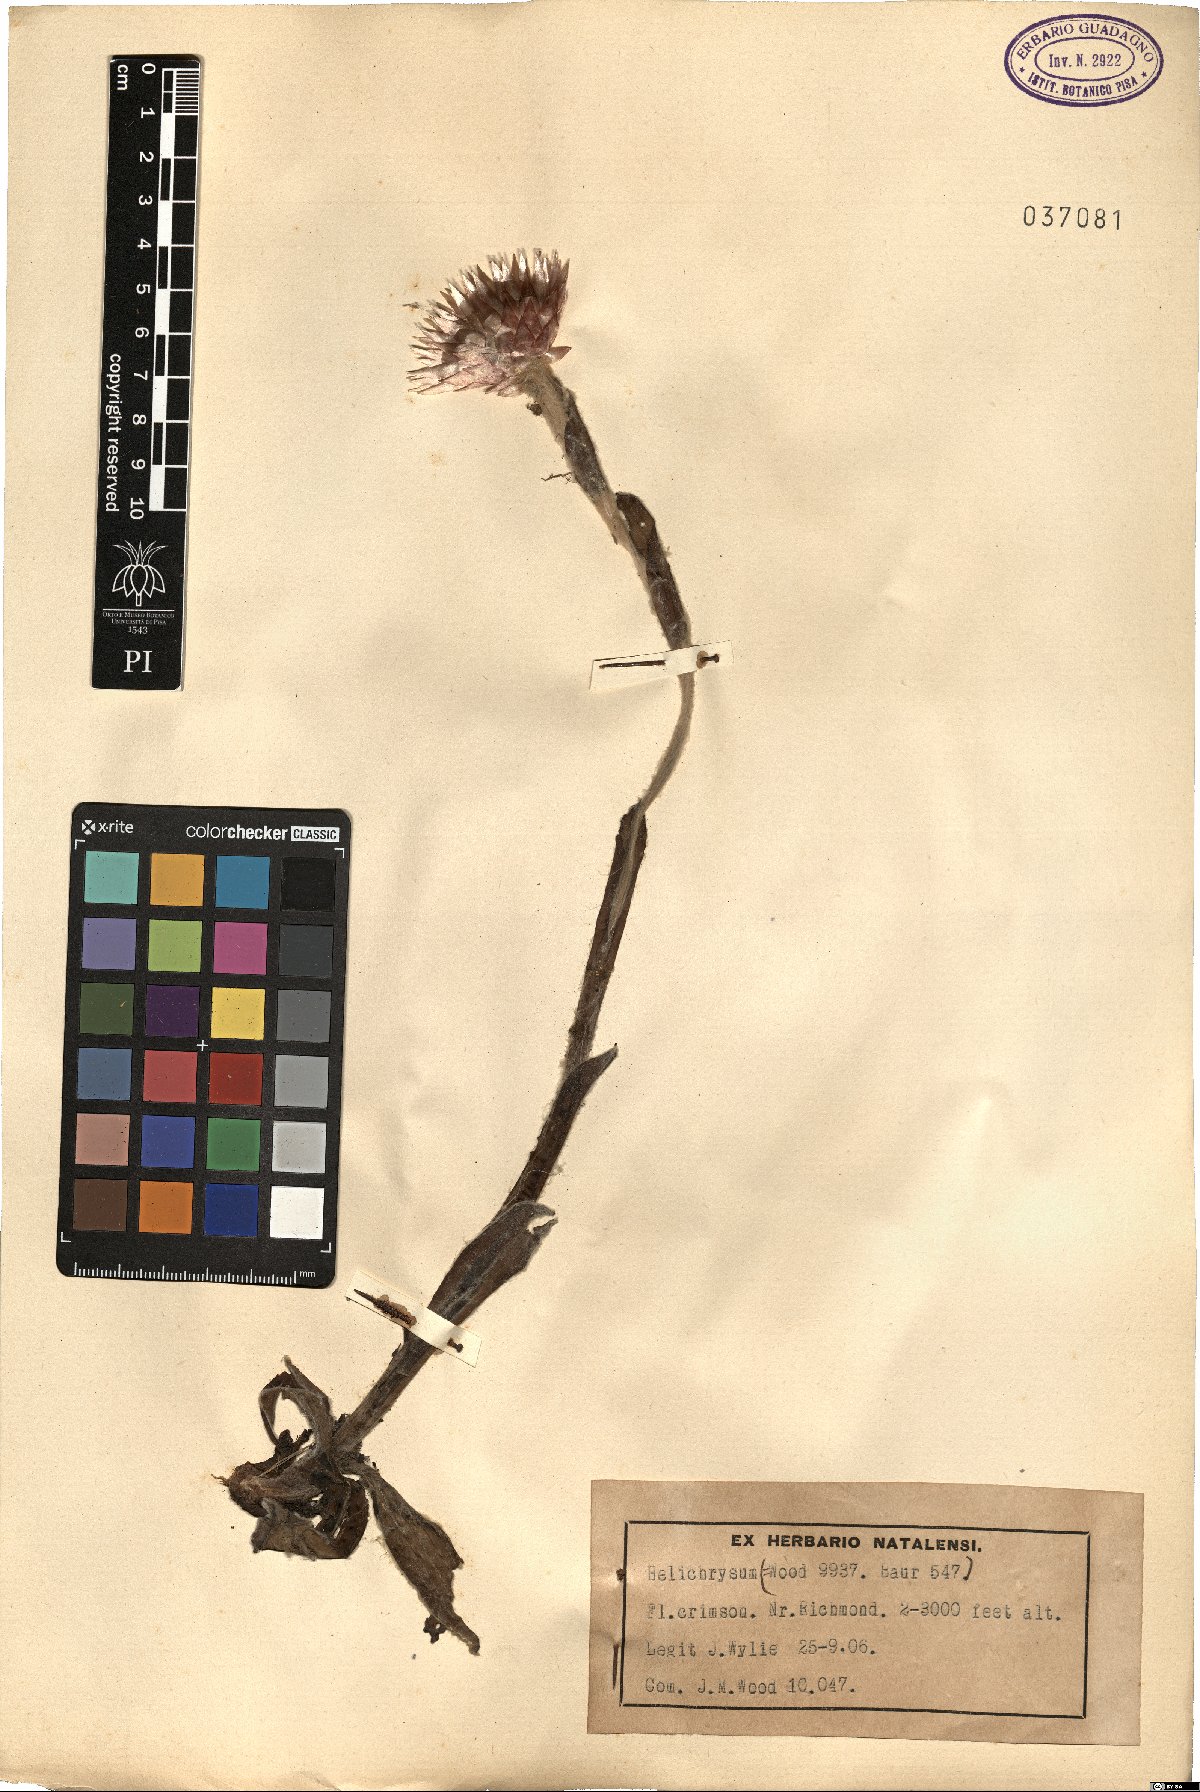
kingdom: Plantae
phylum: Tracheophyta
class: Magnoliopsida
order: Asterales
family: Asteraceae
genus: Helichrysum
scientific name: Helichrysum
